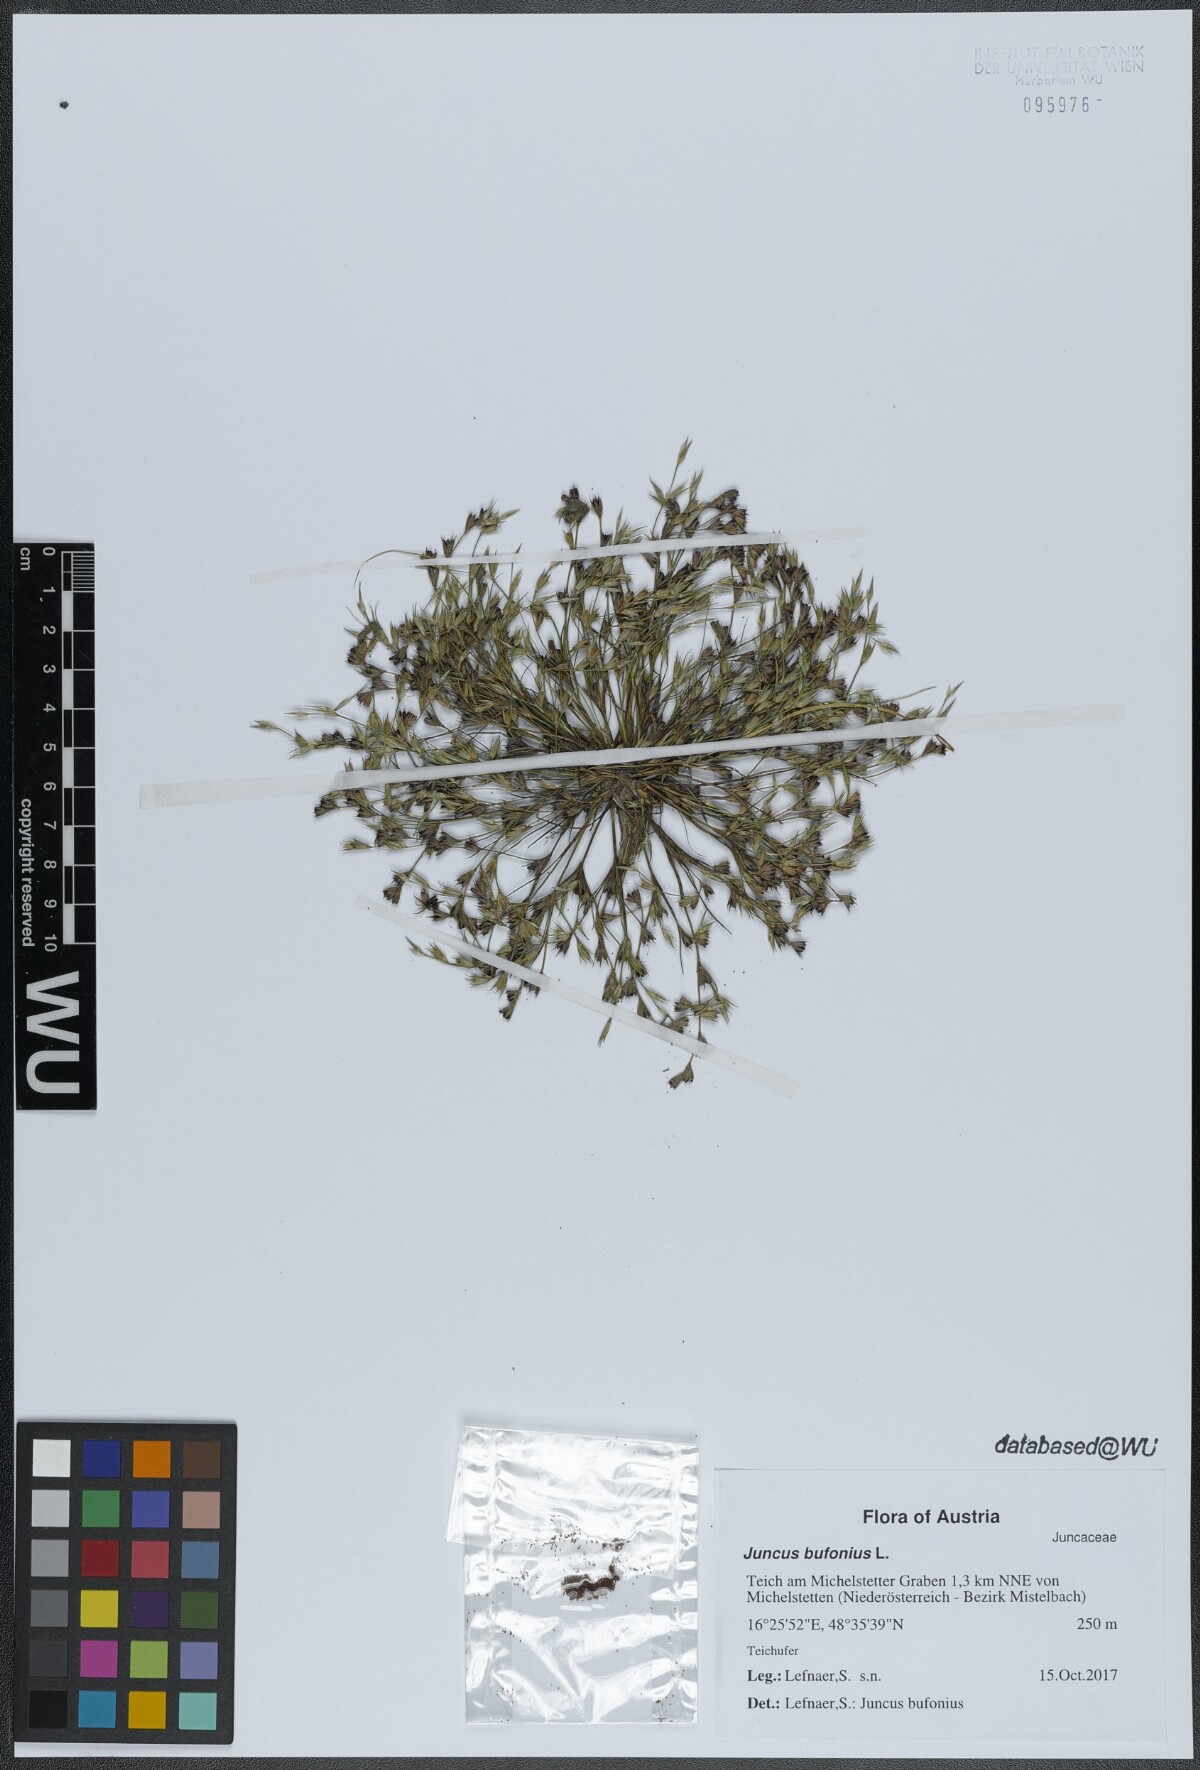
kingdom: Plantae
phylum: Tracheophyta
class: Liliopsida
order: Poales
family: Juncaceae
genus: Juncus
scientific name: Juncus bufonius
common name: Toad rush
